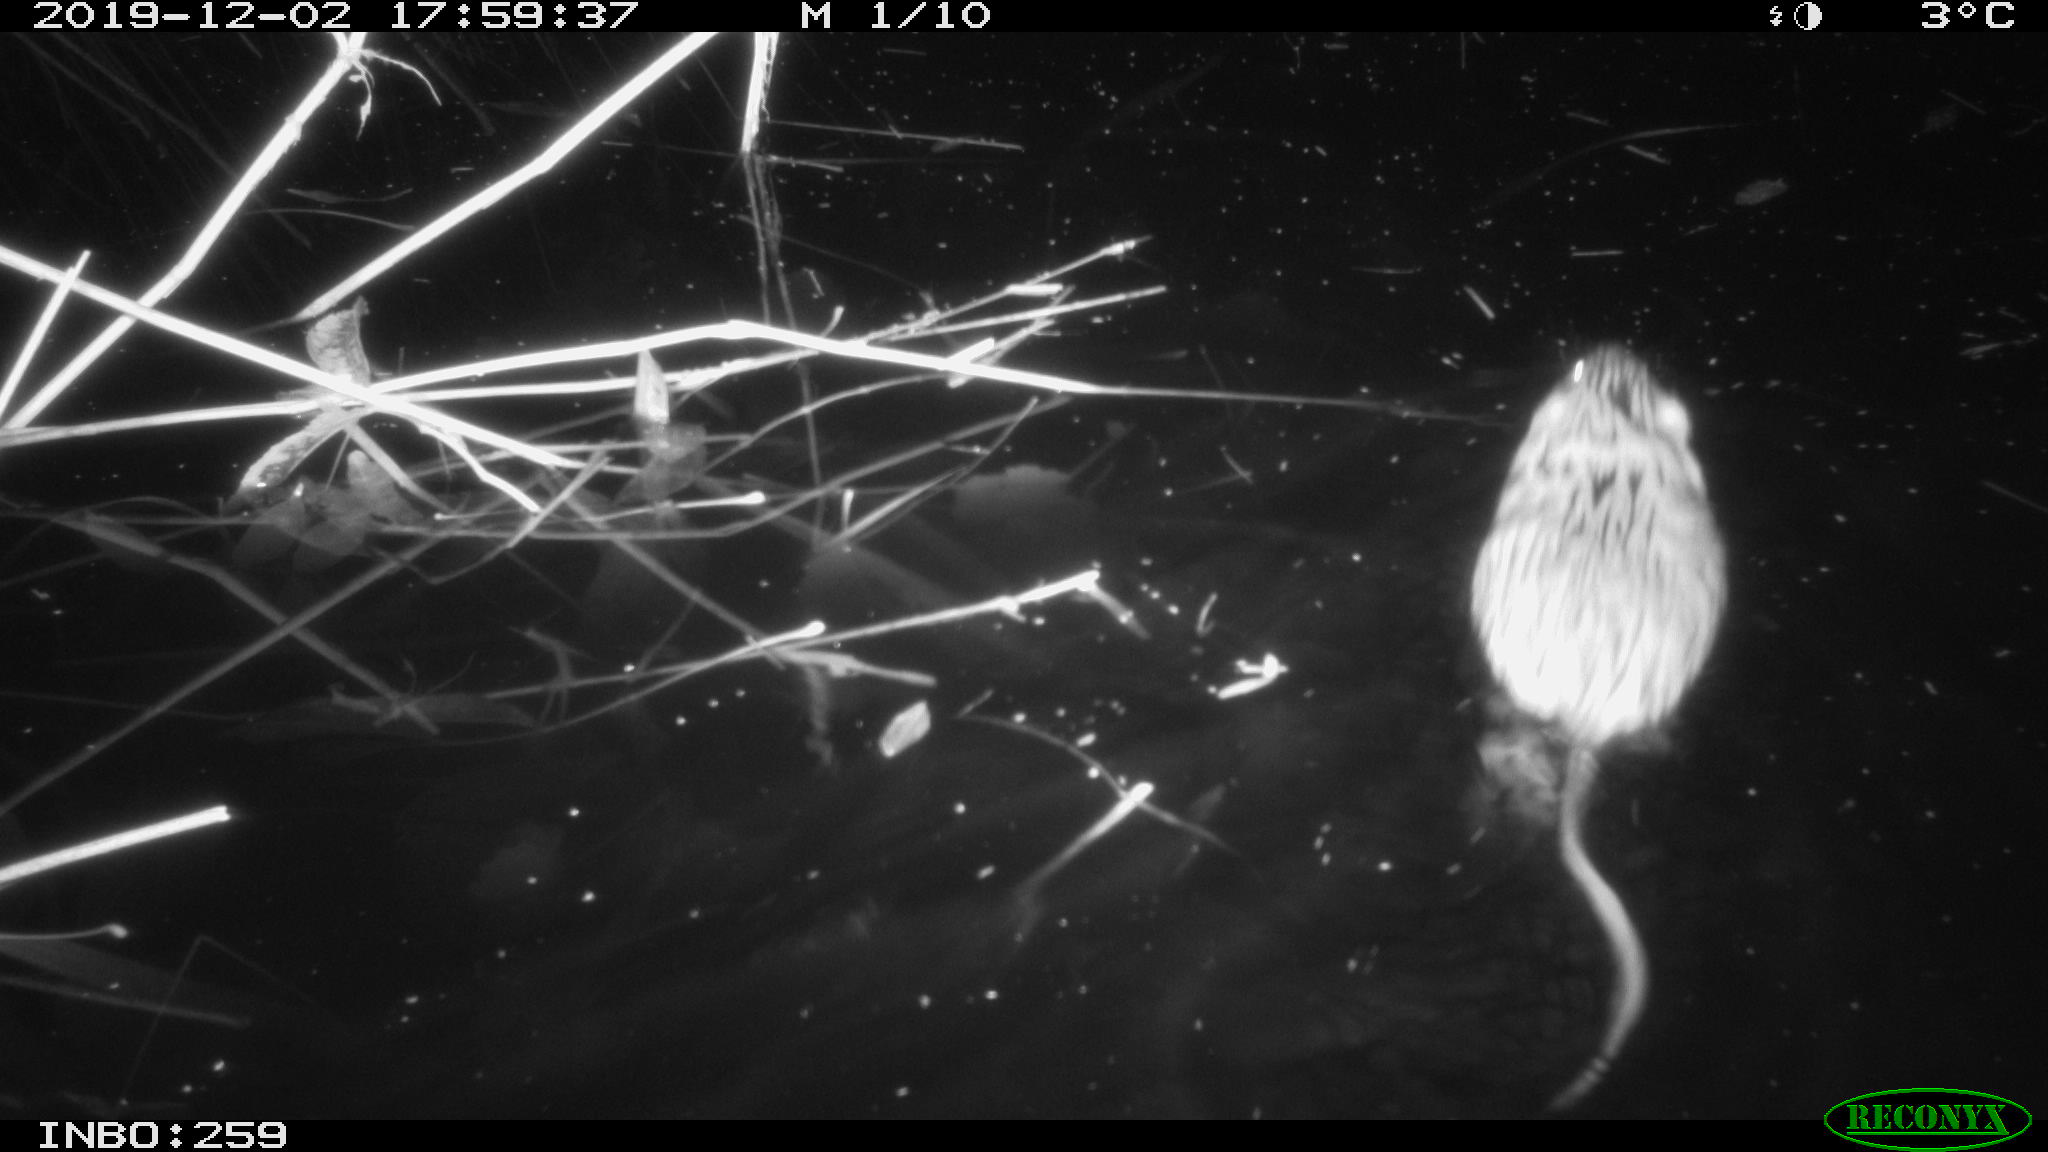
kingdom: Animalia
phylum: Chordata
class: Mammalia
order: Rodentia
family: Cricetidae
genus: Ondatra
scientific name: Ondatra zibethicus
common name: Muskrat
